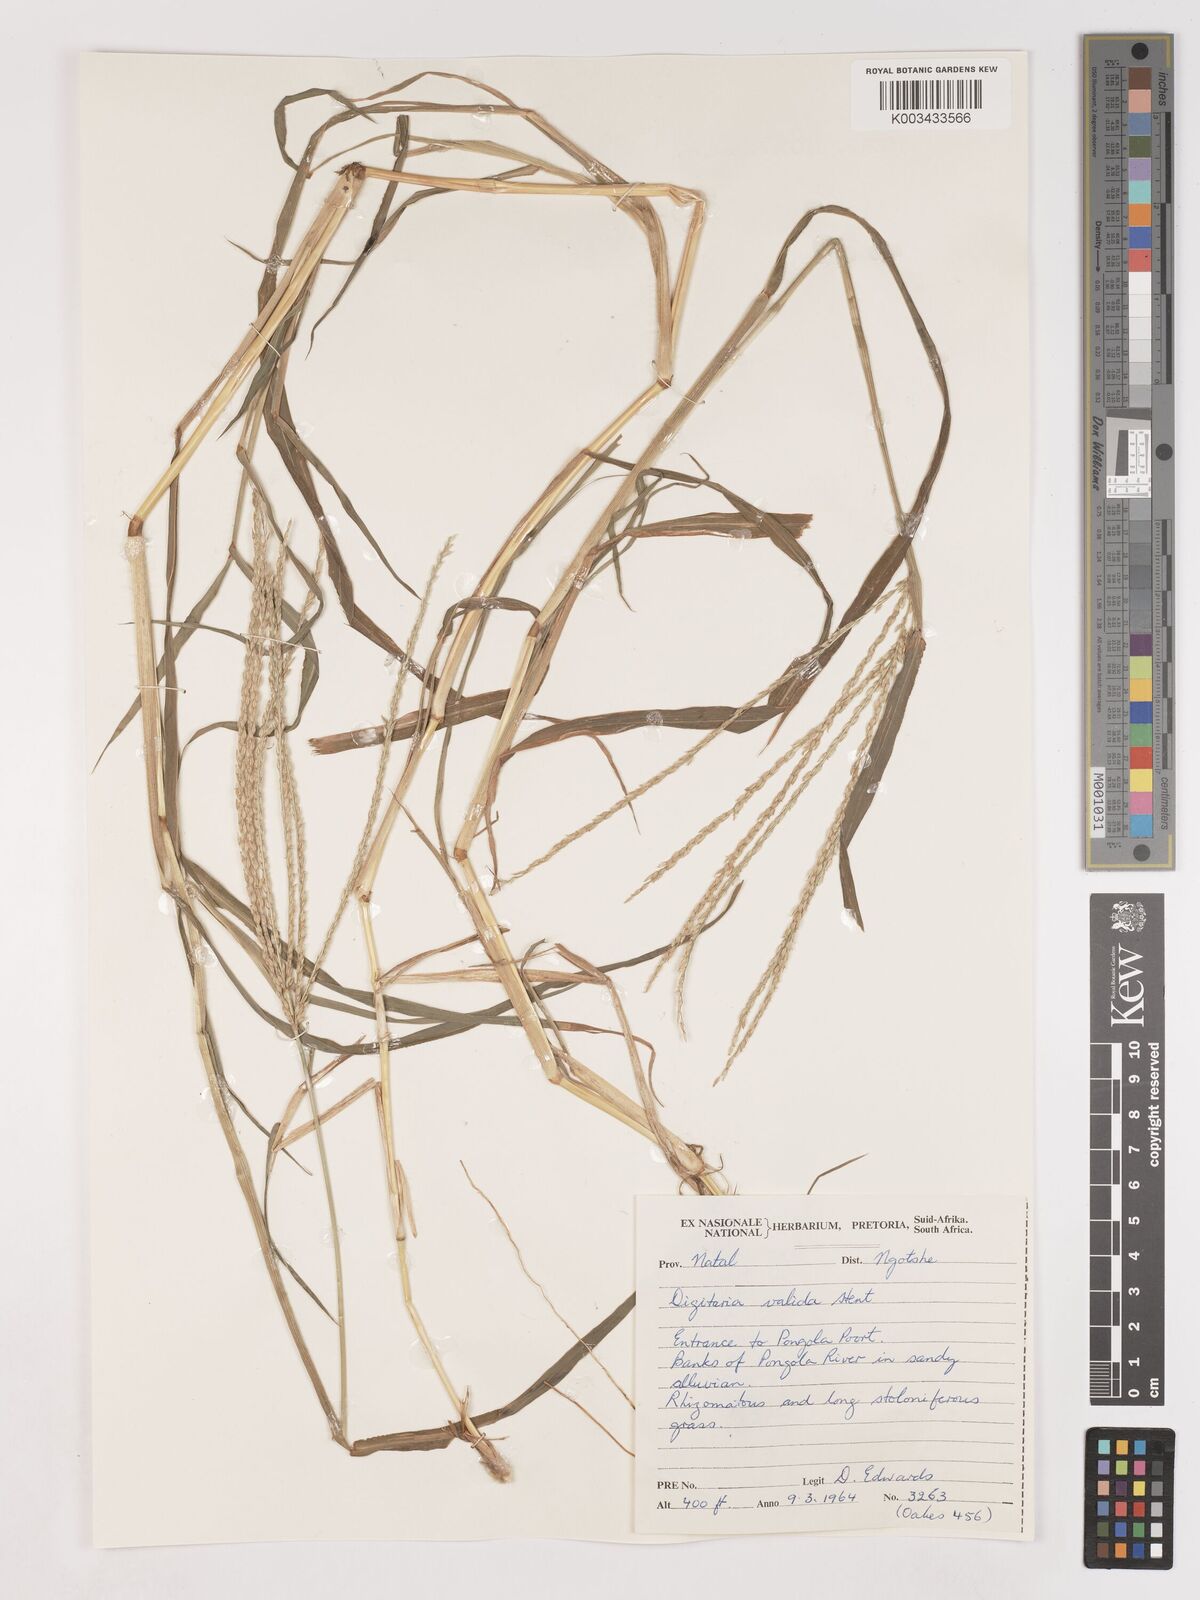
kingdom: Plantae
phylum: Tracheophyta
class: Liliopsida
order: Poales
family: Poaceae
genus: Digitaria
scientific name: Digitaria eriantha
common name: Digitgrass
